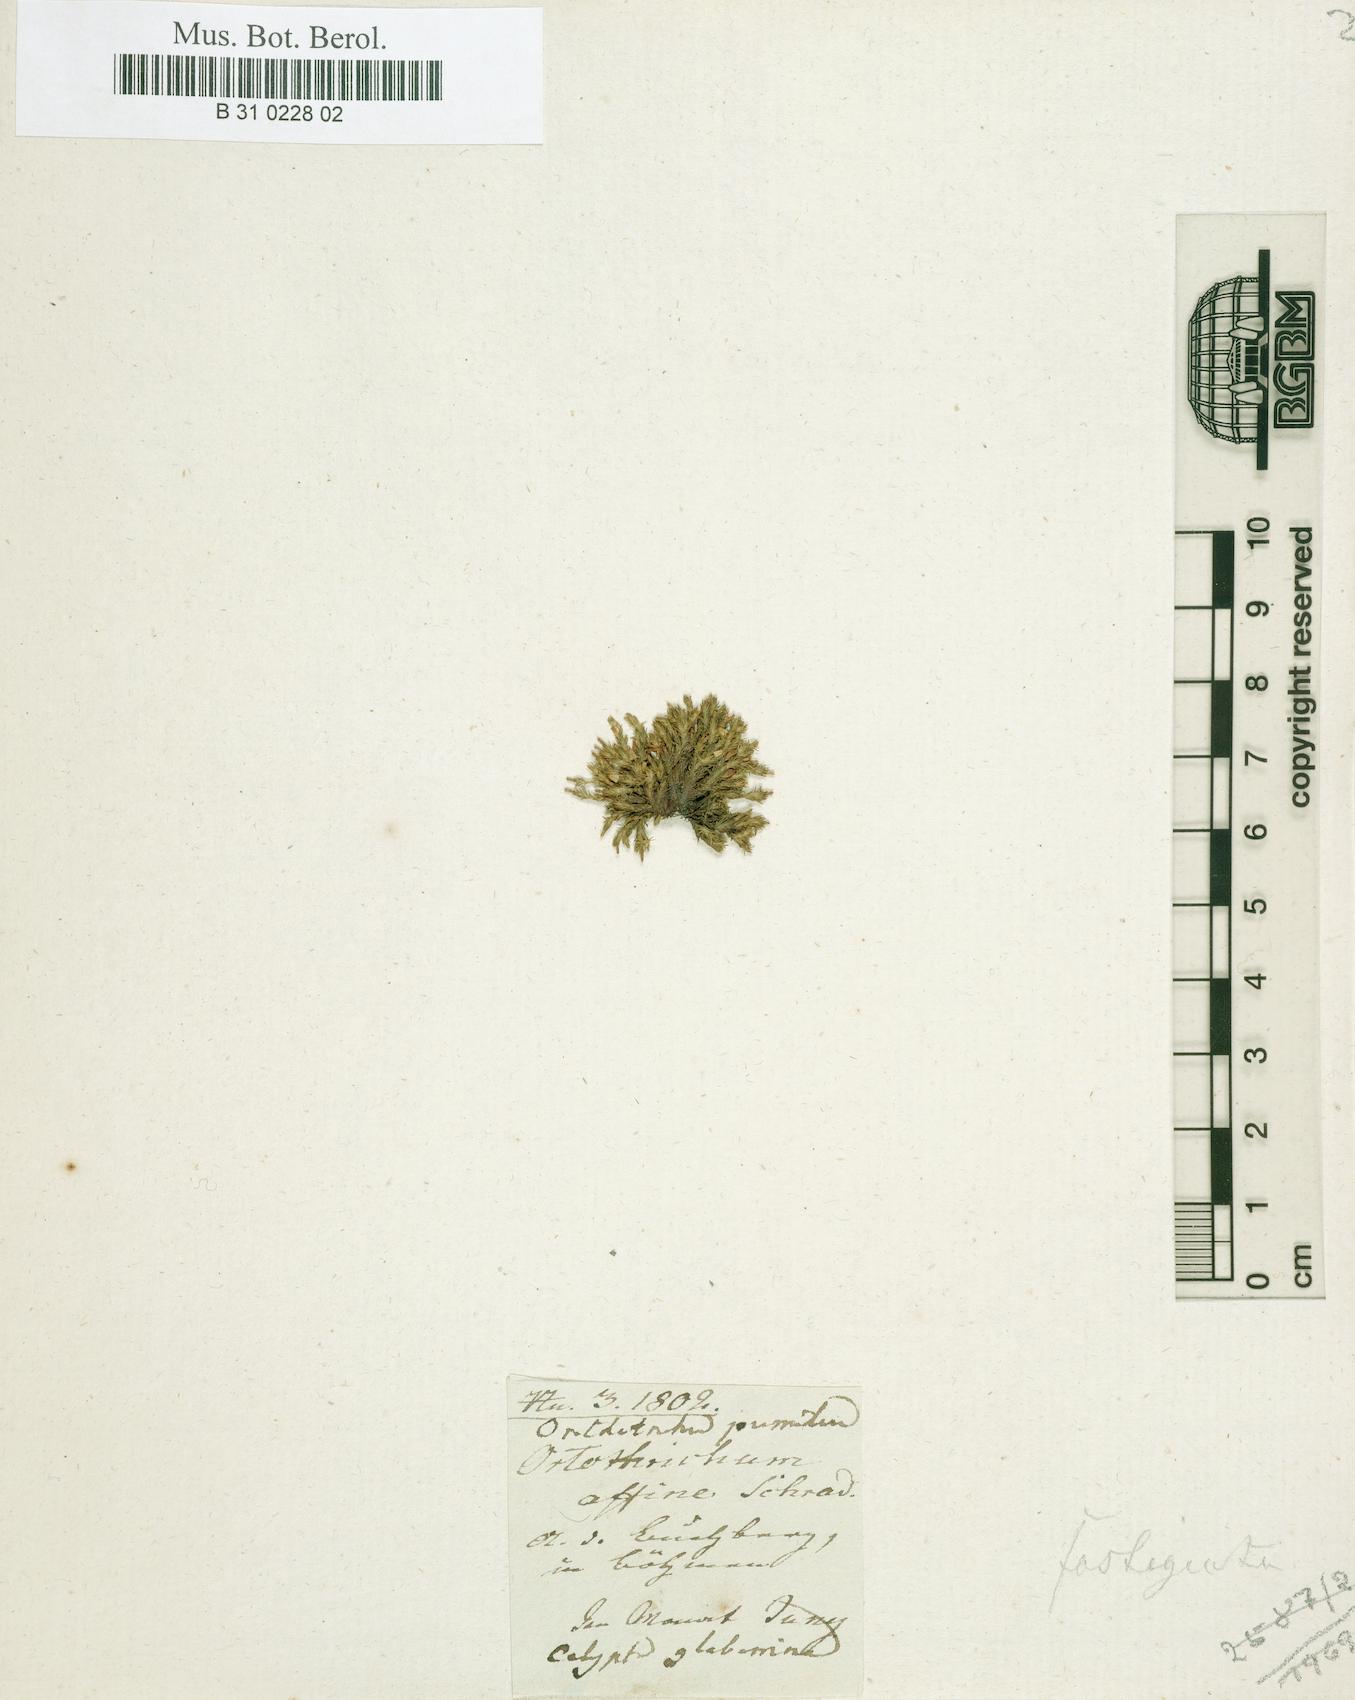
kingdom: Plantae
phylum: Bryophyta
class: Bryopsida
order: Orthotrichales
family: Orthotrichaceae
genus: Orthotrichum
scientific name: Orthotrichum pumilum
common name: Dwarf bristle moss
